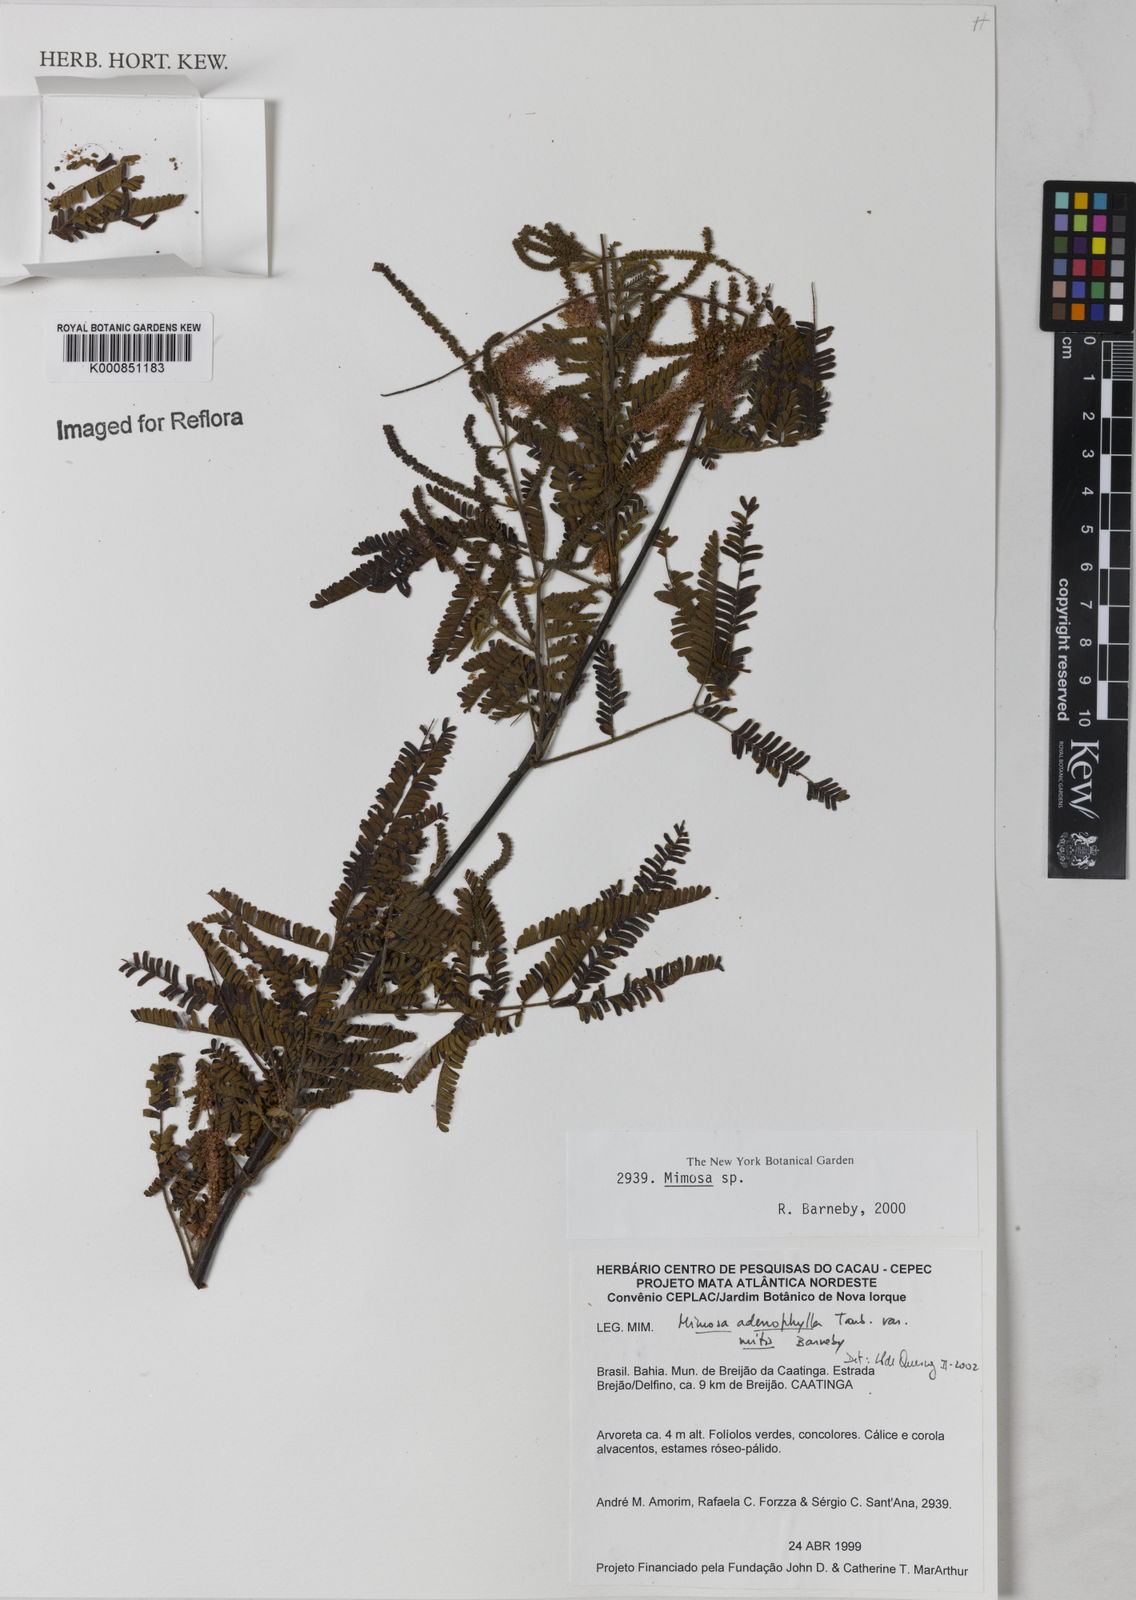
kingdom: Plantae
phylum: Tracheophyta
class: Magnoliopsida
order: Fabales
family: Fabaceae
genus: Mimosa
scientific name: Mimosa pteridifolia
